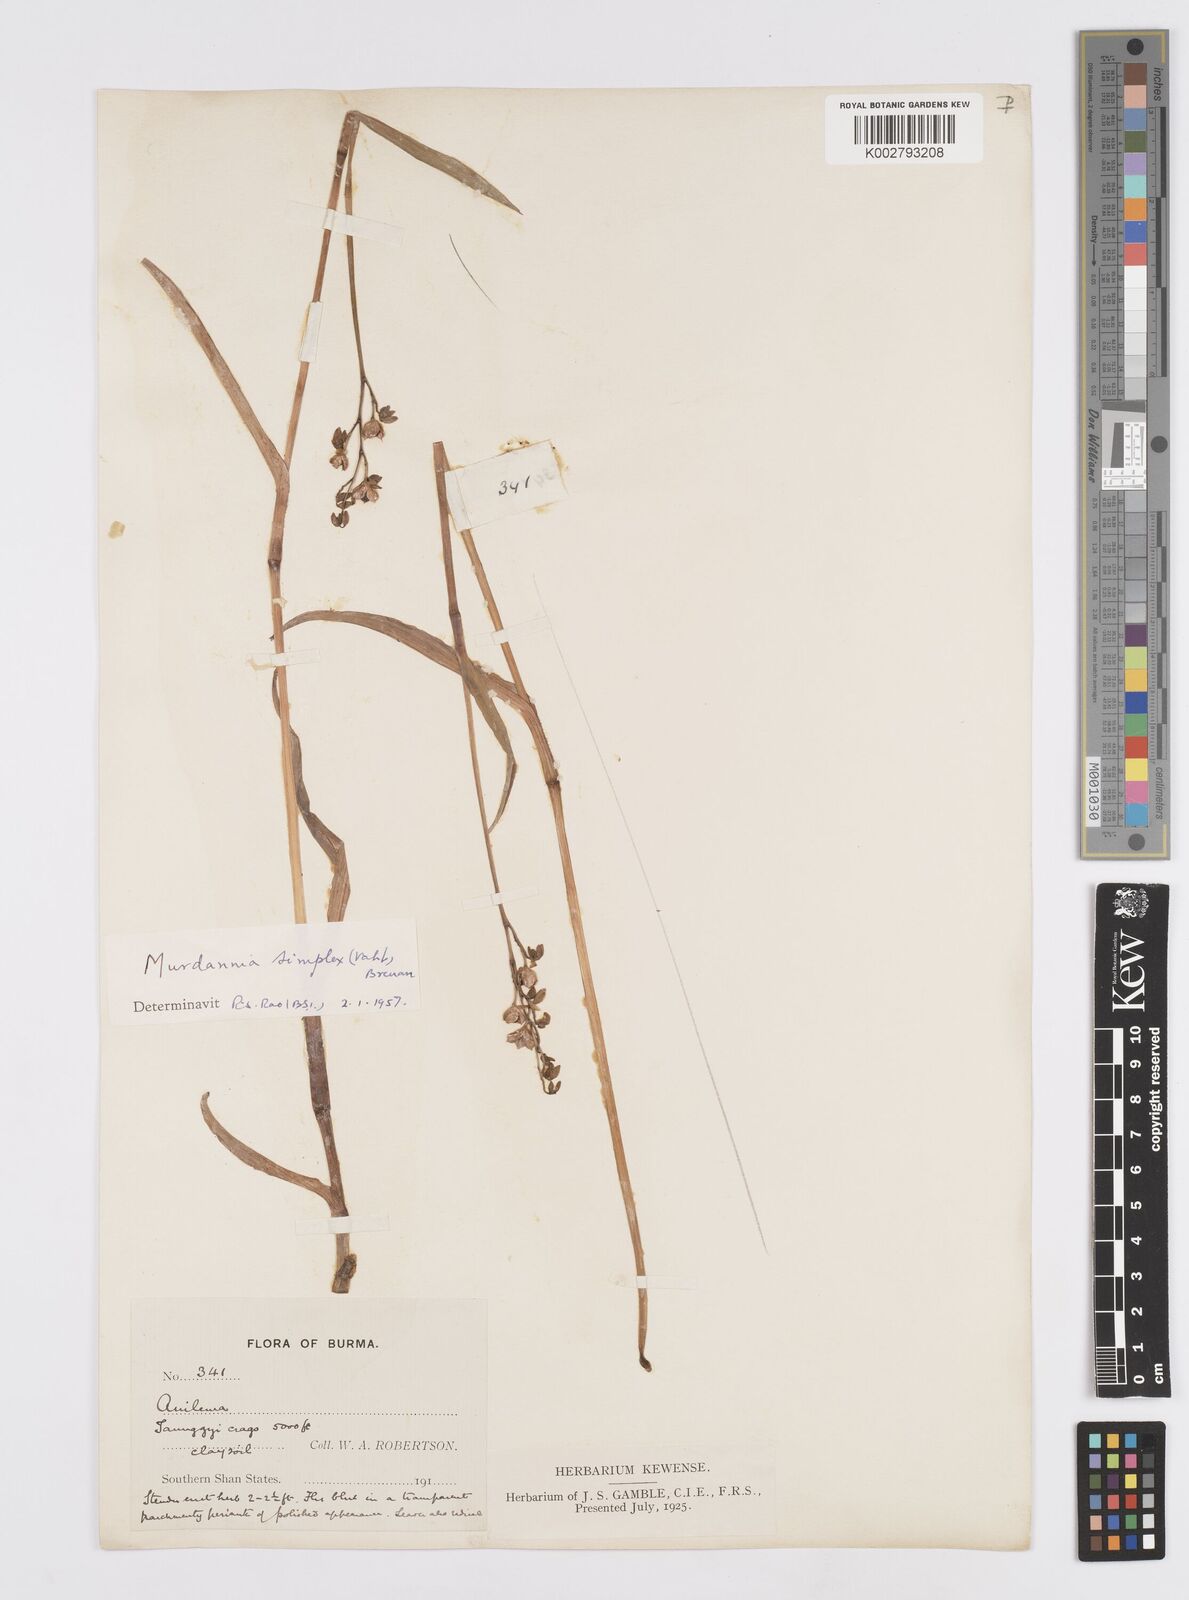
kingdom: Plantae
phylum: Tracheophyta
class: Liliopsida
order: Commelinales
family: Commelinaceae
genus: Murdannia
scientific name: Murdannia simplex
